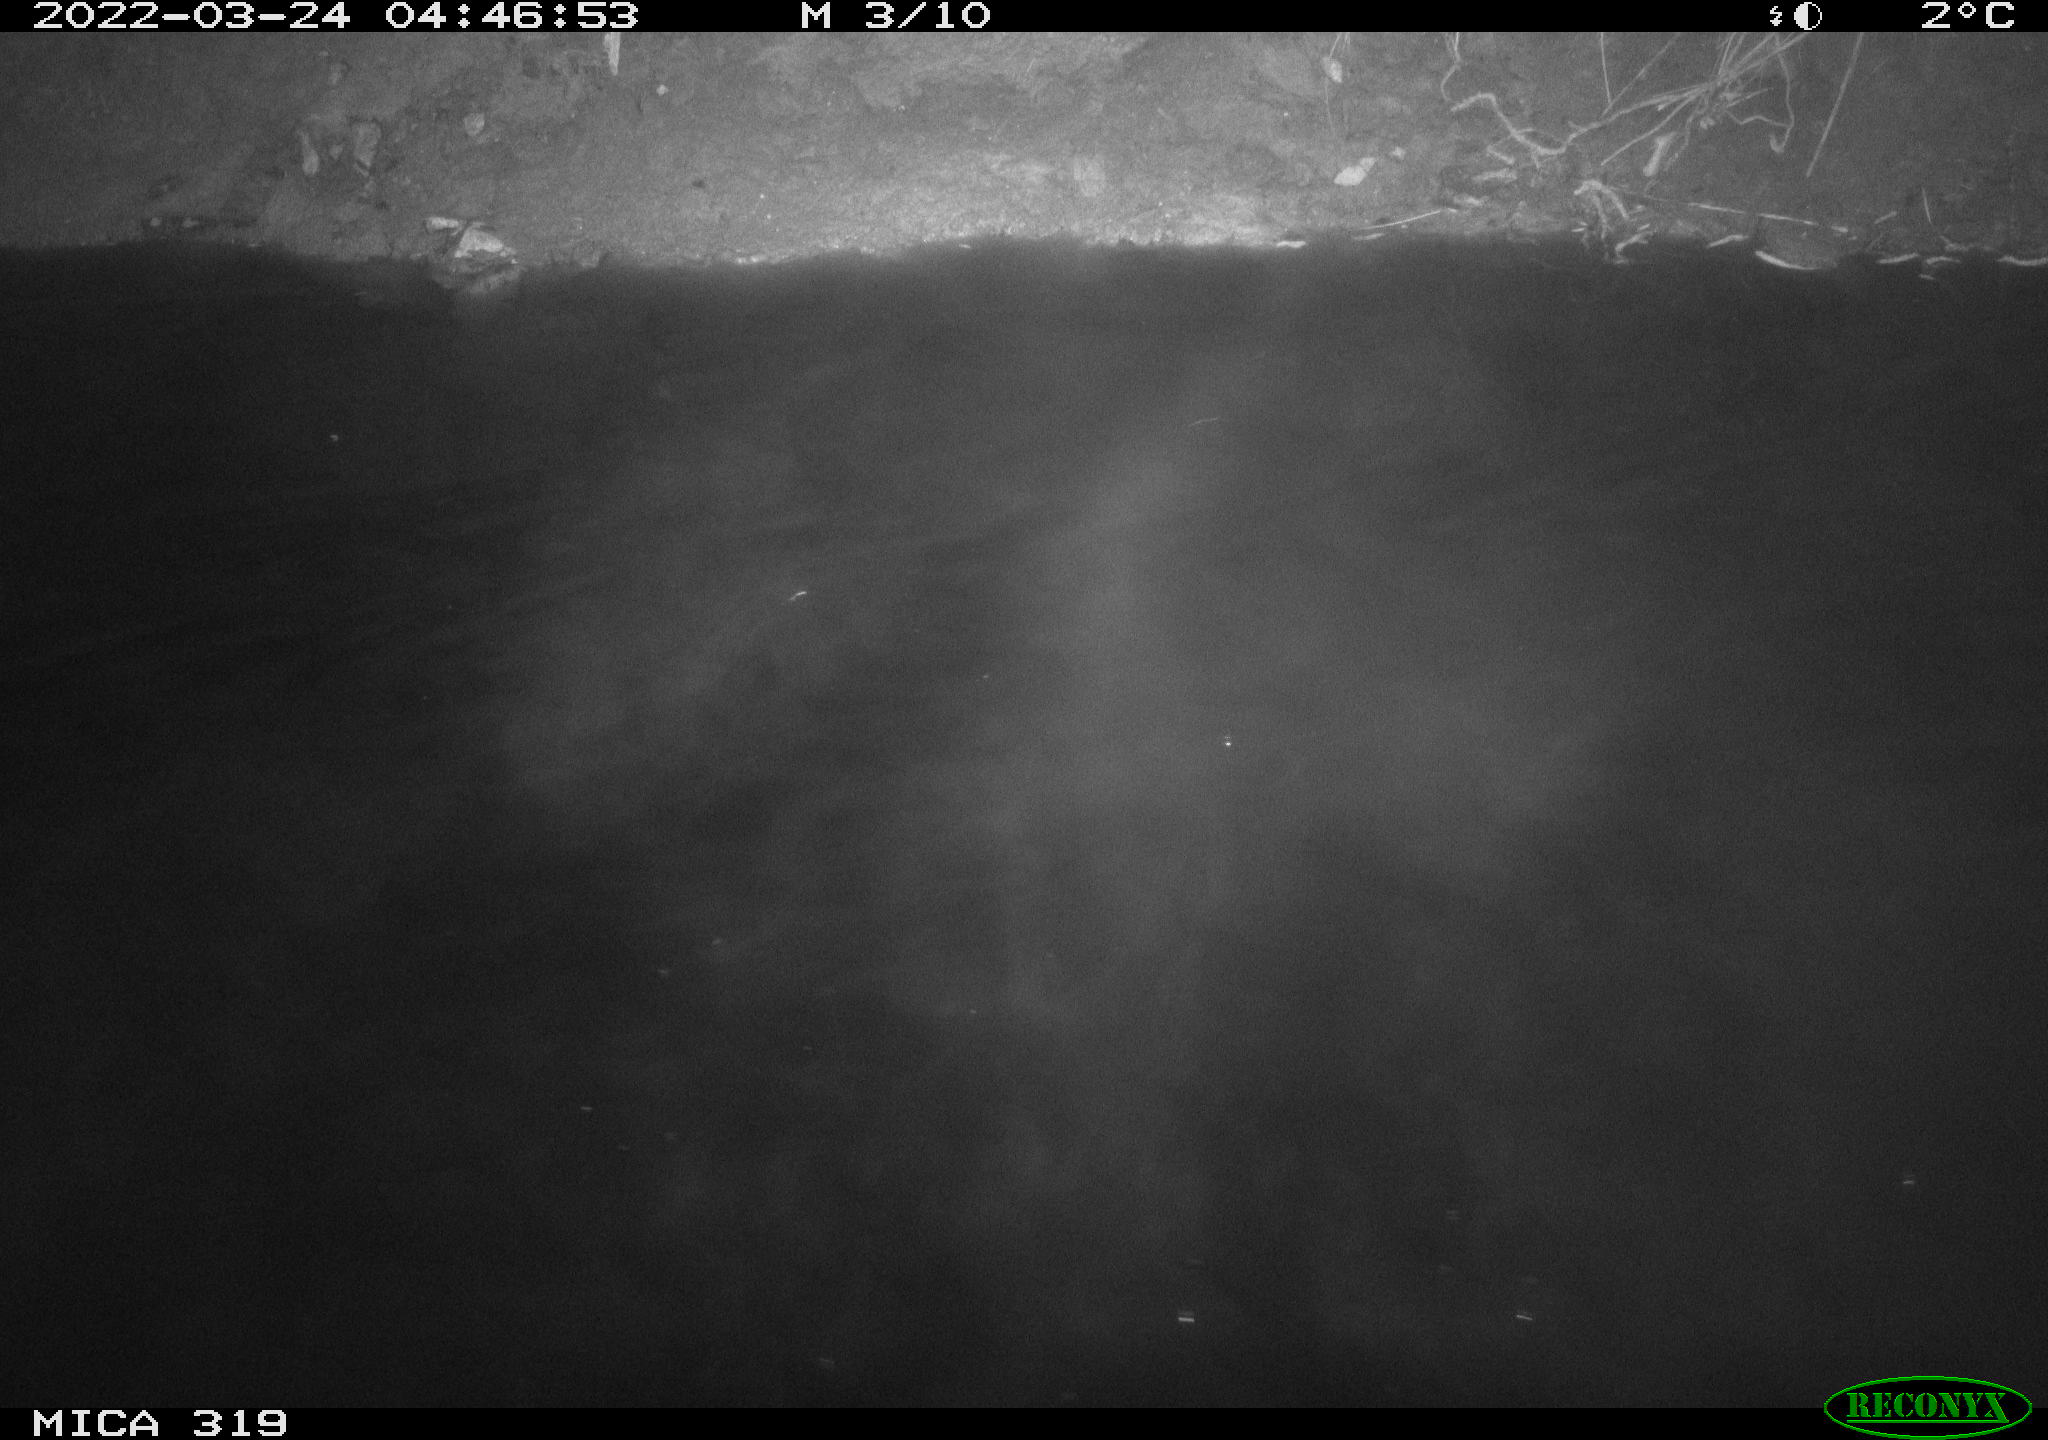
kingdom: Animalia
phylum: Chordata
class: Aves
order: Gruiformes
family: Rallidae
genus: Gallinula
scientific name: Gallinula chloropus
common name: Common moorhen
